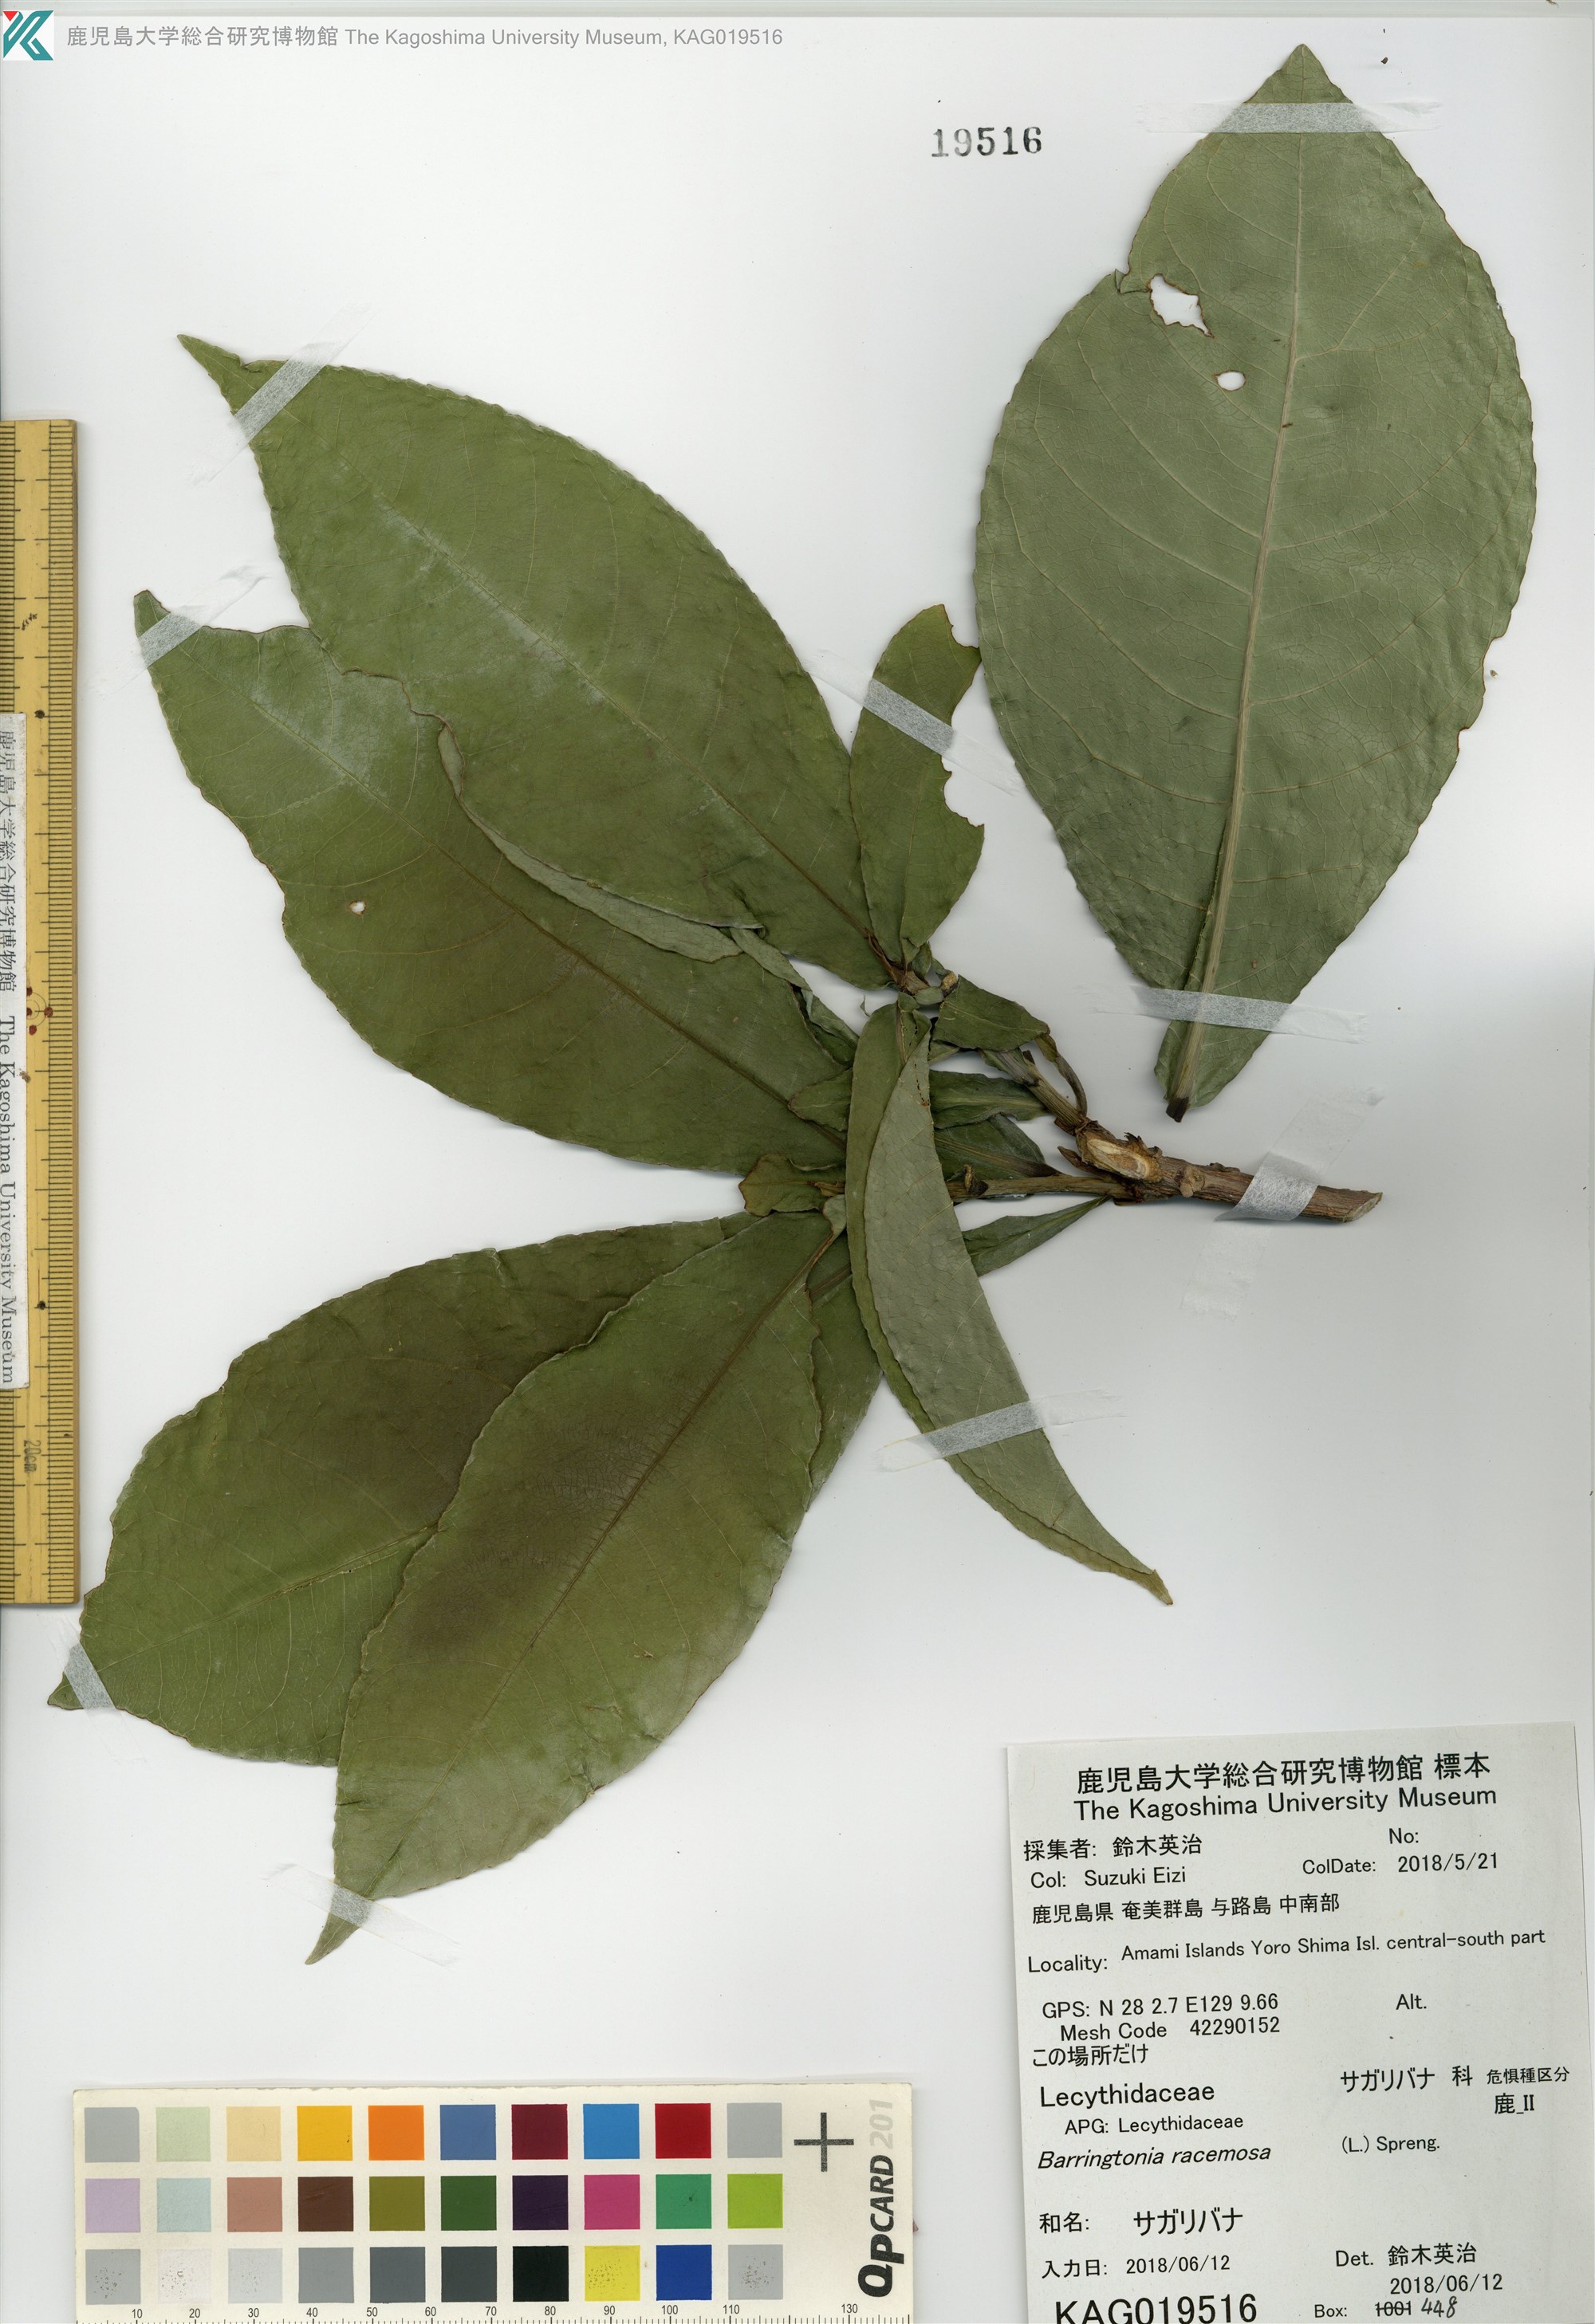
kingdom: Plantae
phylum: Tracheophyta
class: Magnoliopsida
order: Ericales
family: Lecythidaceae
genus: Barringtonia
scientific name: Barringtonia racemosa
